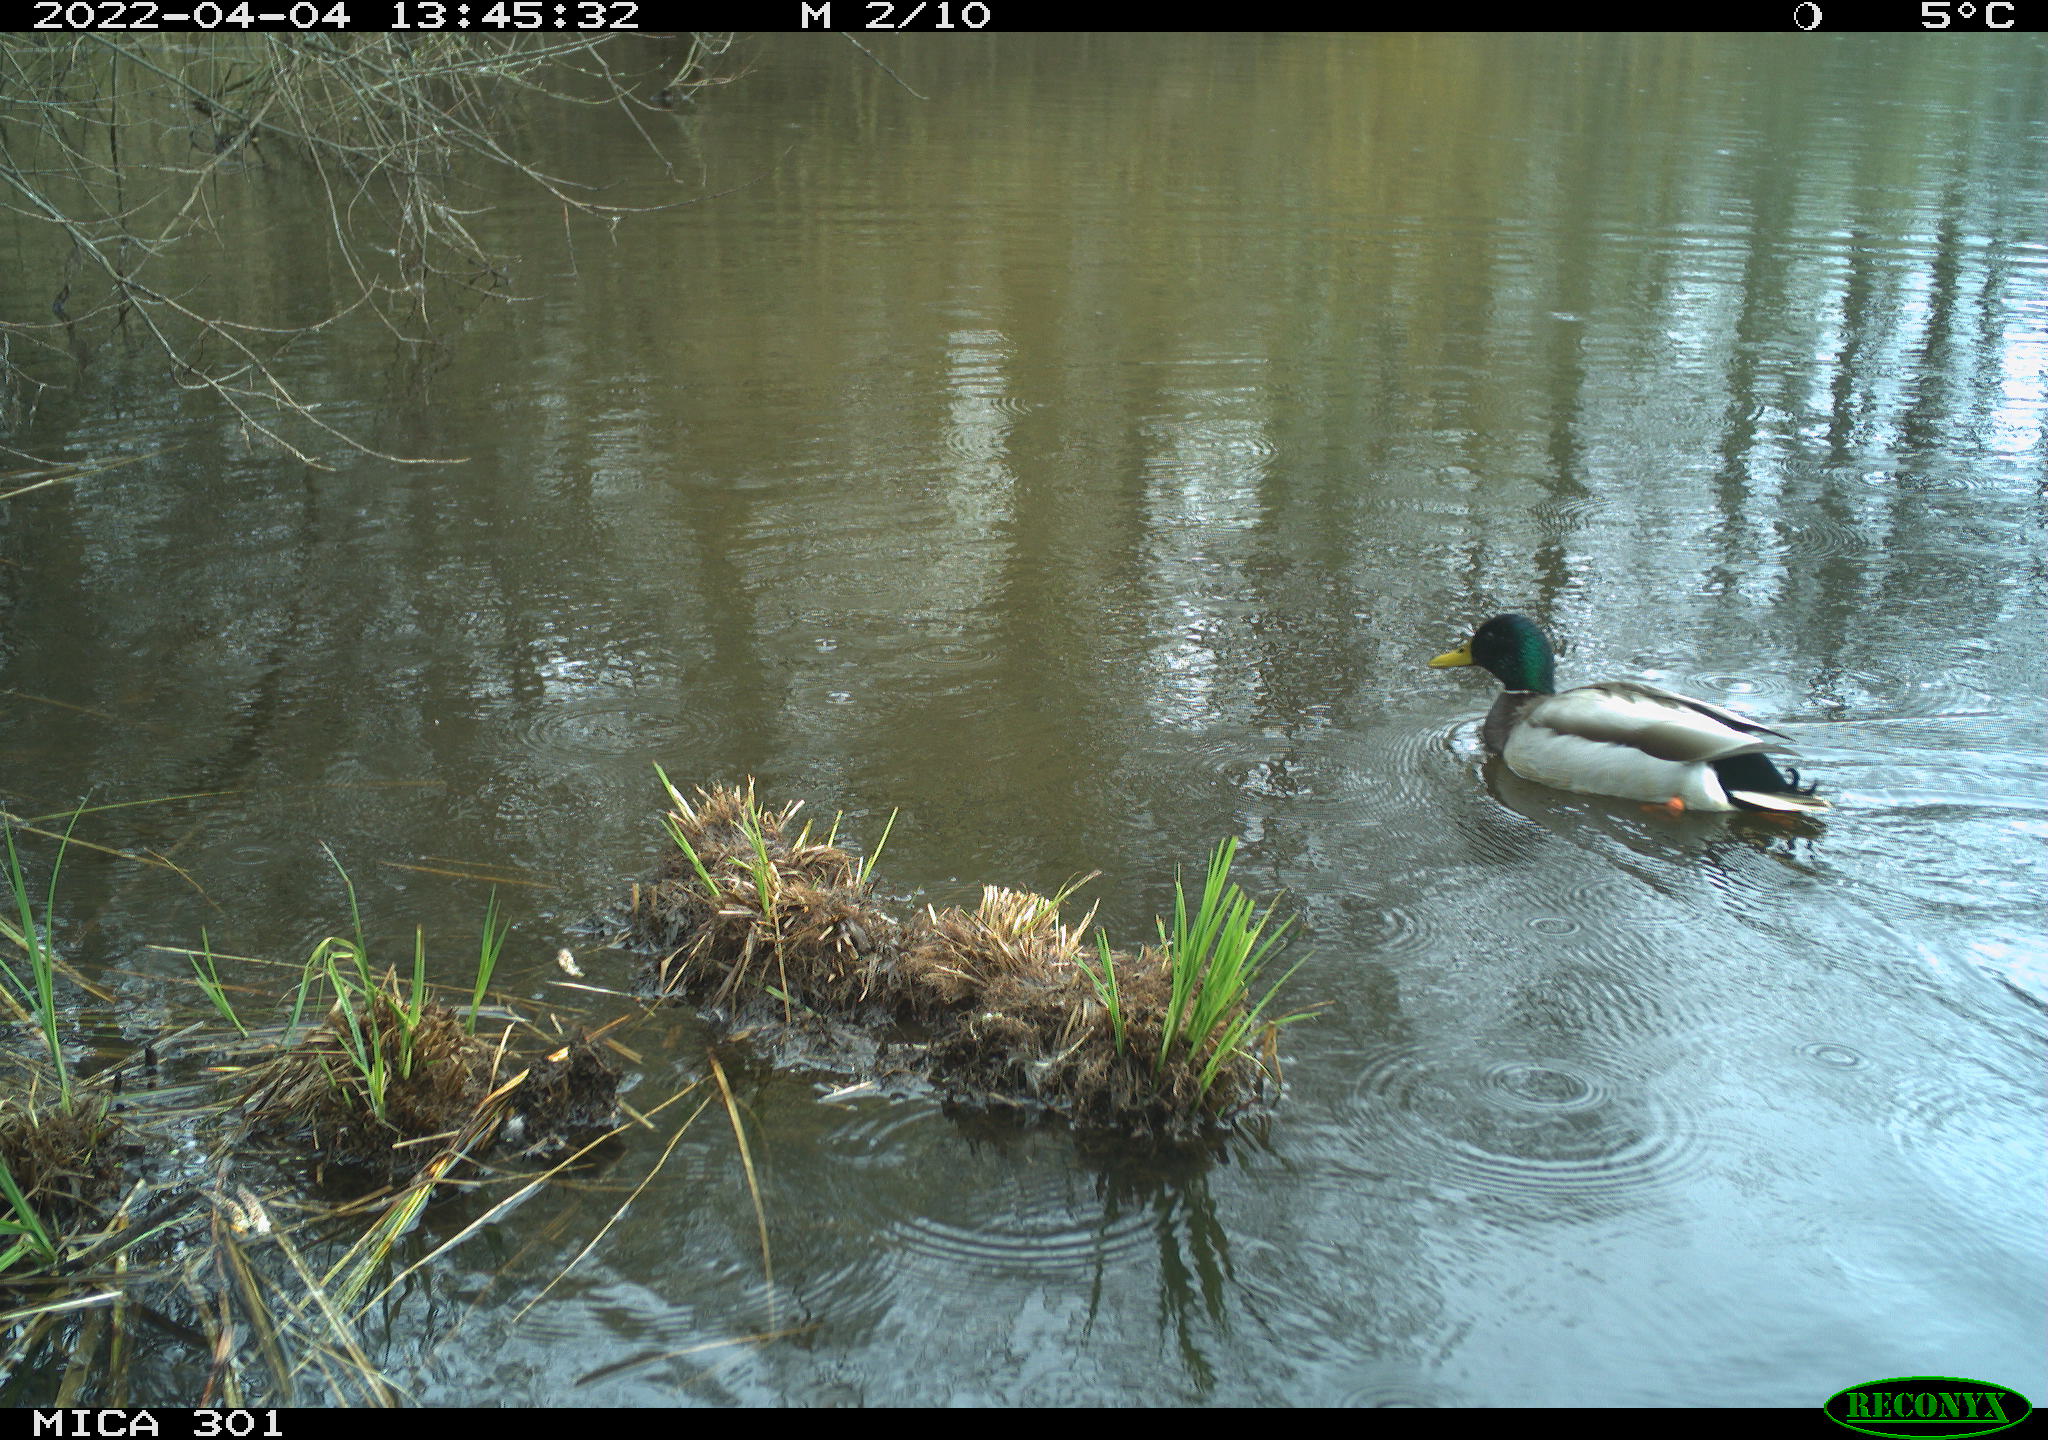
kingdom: Animalia
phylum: Chordata
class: Aves
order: Anseriformes
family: Anatidae
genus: Anas
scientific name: Anas platyrhynchos
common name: Mallard
